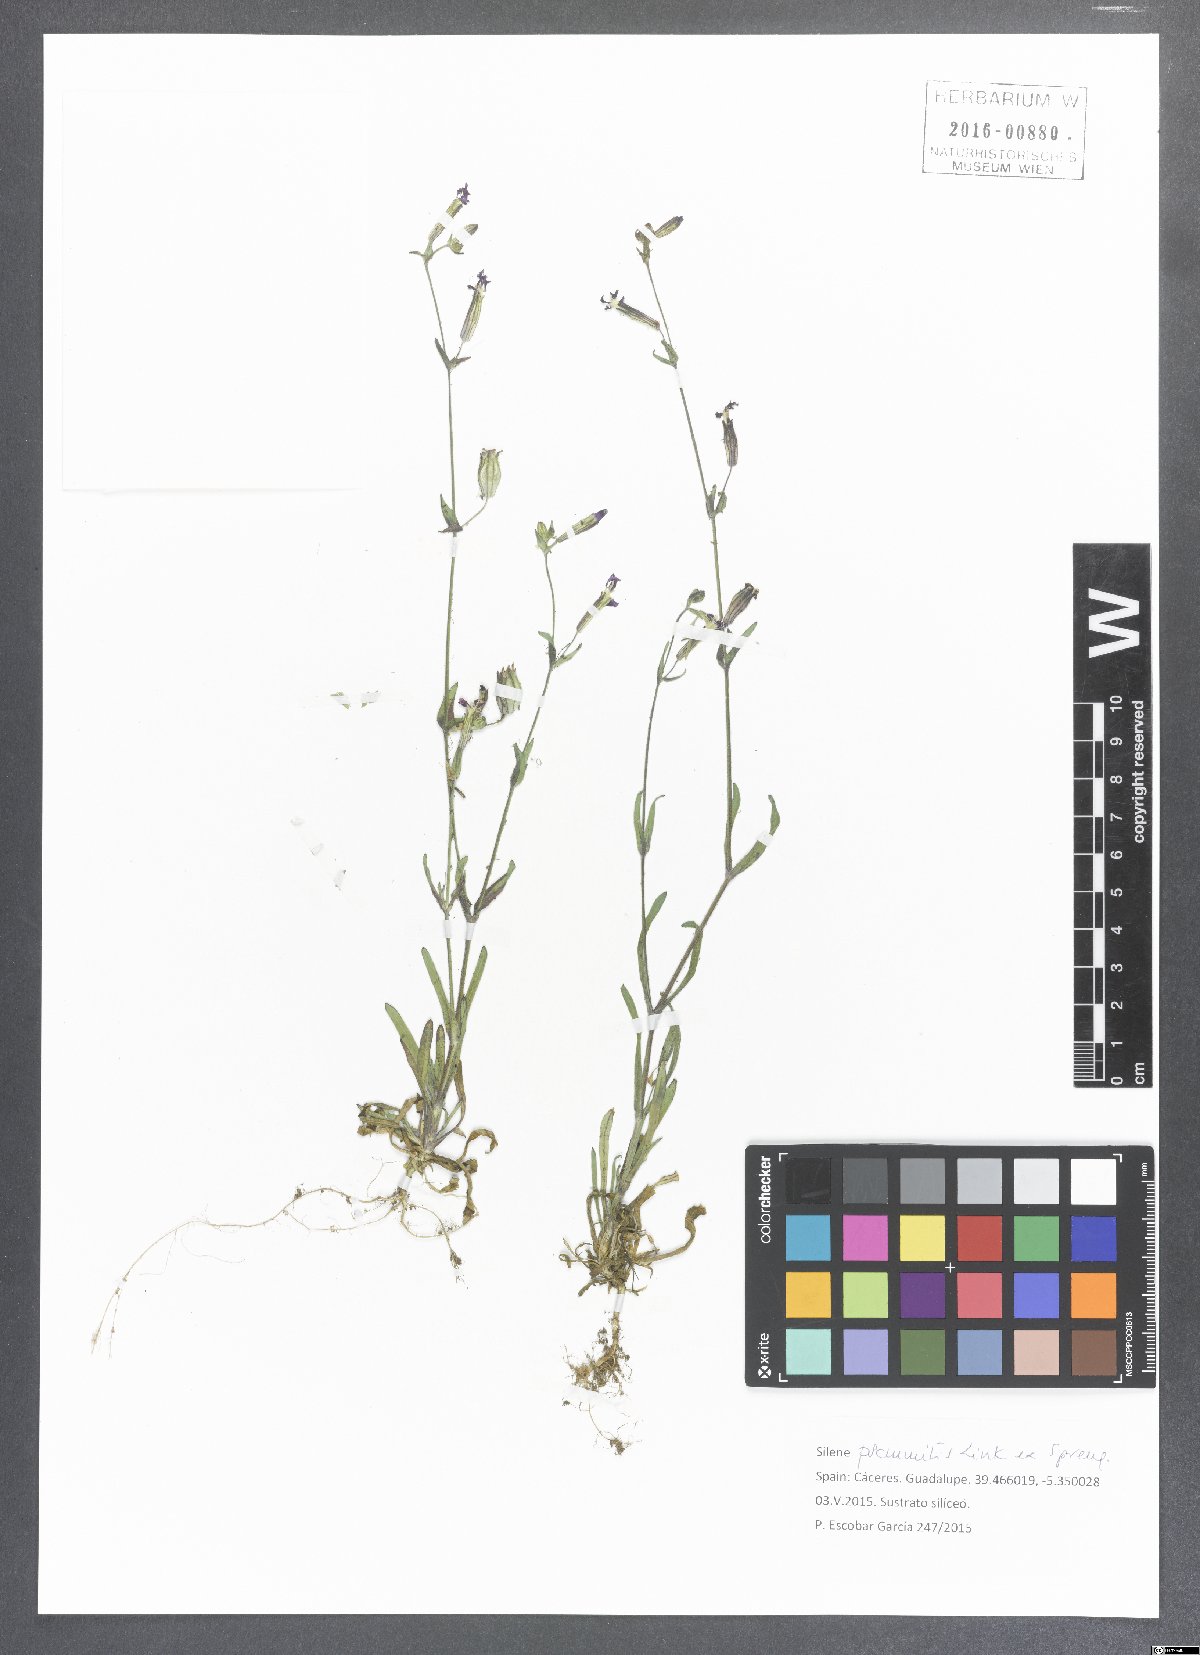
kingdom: Plantae
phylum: Tracheophyta
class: Magnoliopsida
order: Caryophyllales
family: Caryophyllaceae
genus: Silene
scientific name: Silene psammitis
